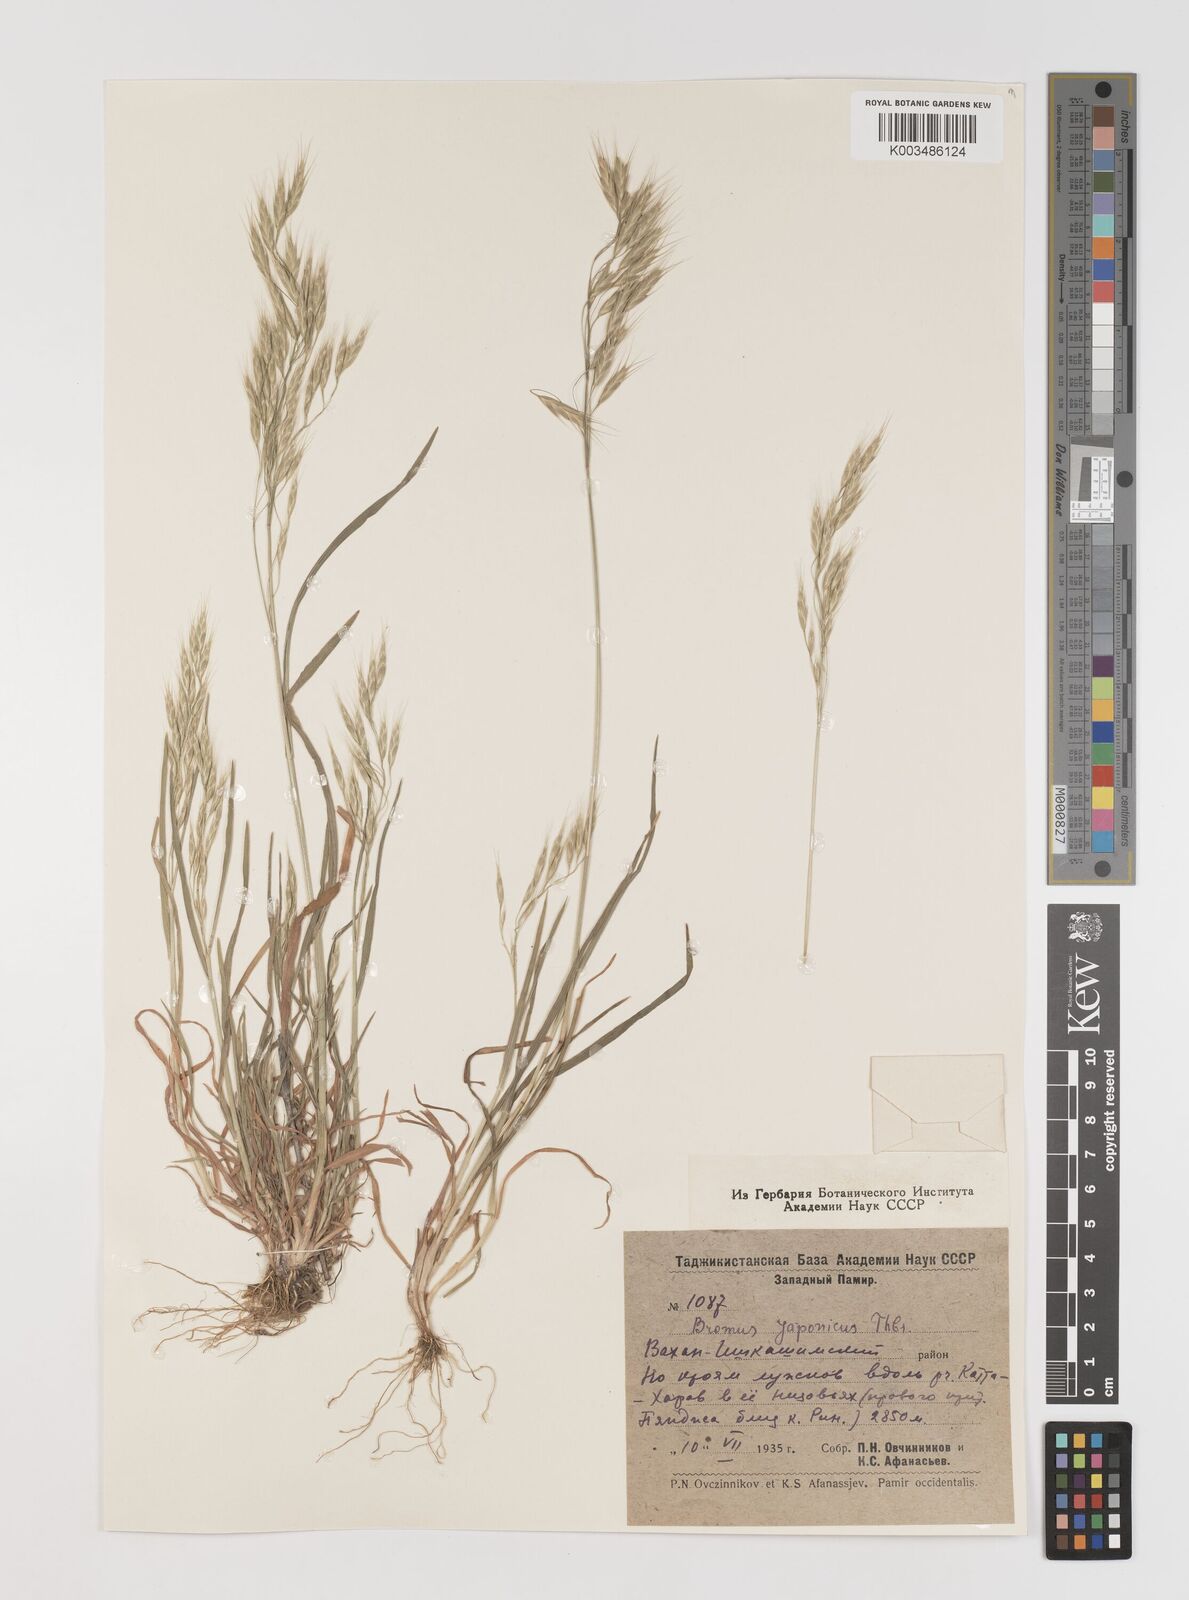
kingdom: Plantae
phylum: Tracheophyta
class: Liliopsida
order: Poales
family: Poaceae
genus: Bromus
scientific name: Bromus japonicus
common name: Japanese brome
